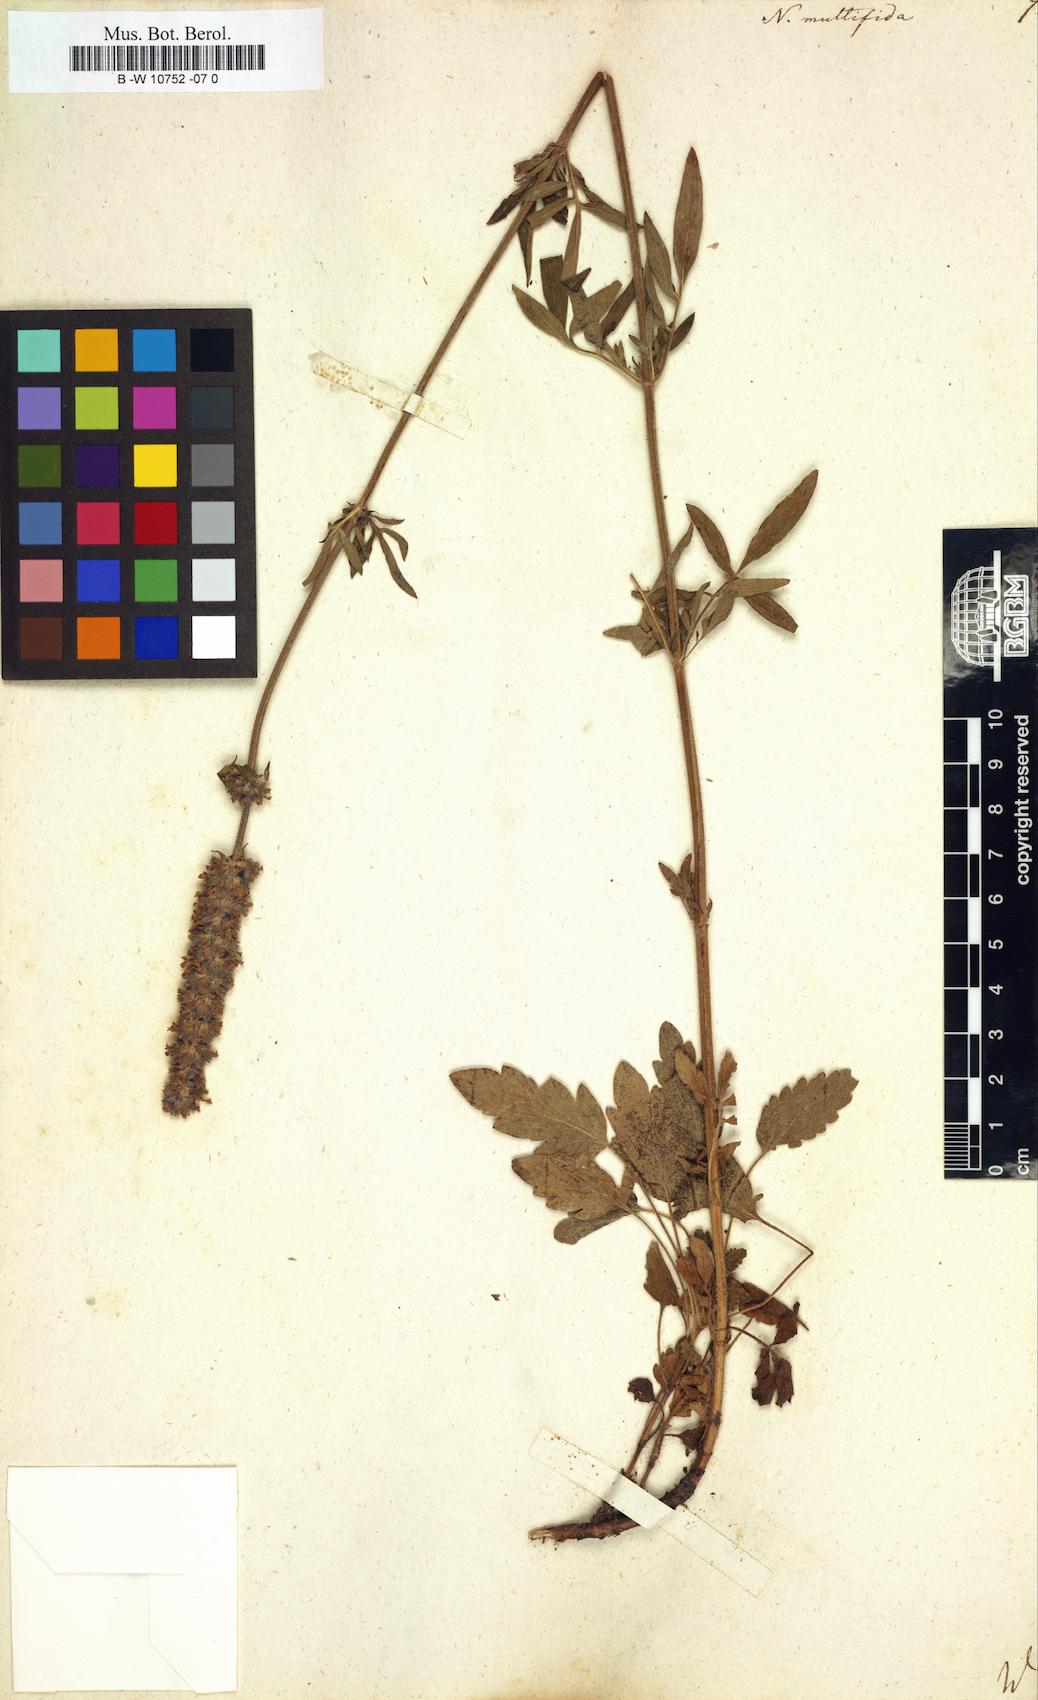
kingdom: Plantae
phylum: Tracheophyta
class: Magnoliopsida
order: Lamiales
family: Lamiaceae
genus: Nepeta
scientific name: Nepeta multifida
